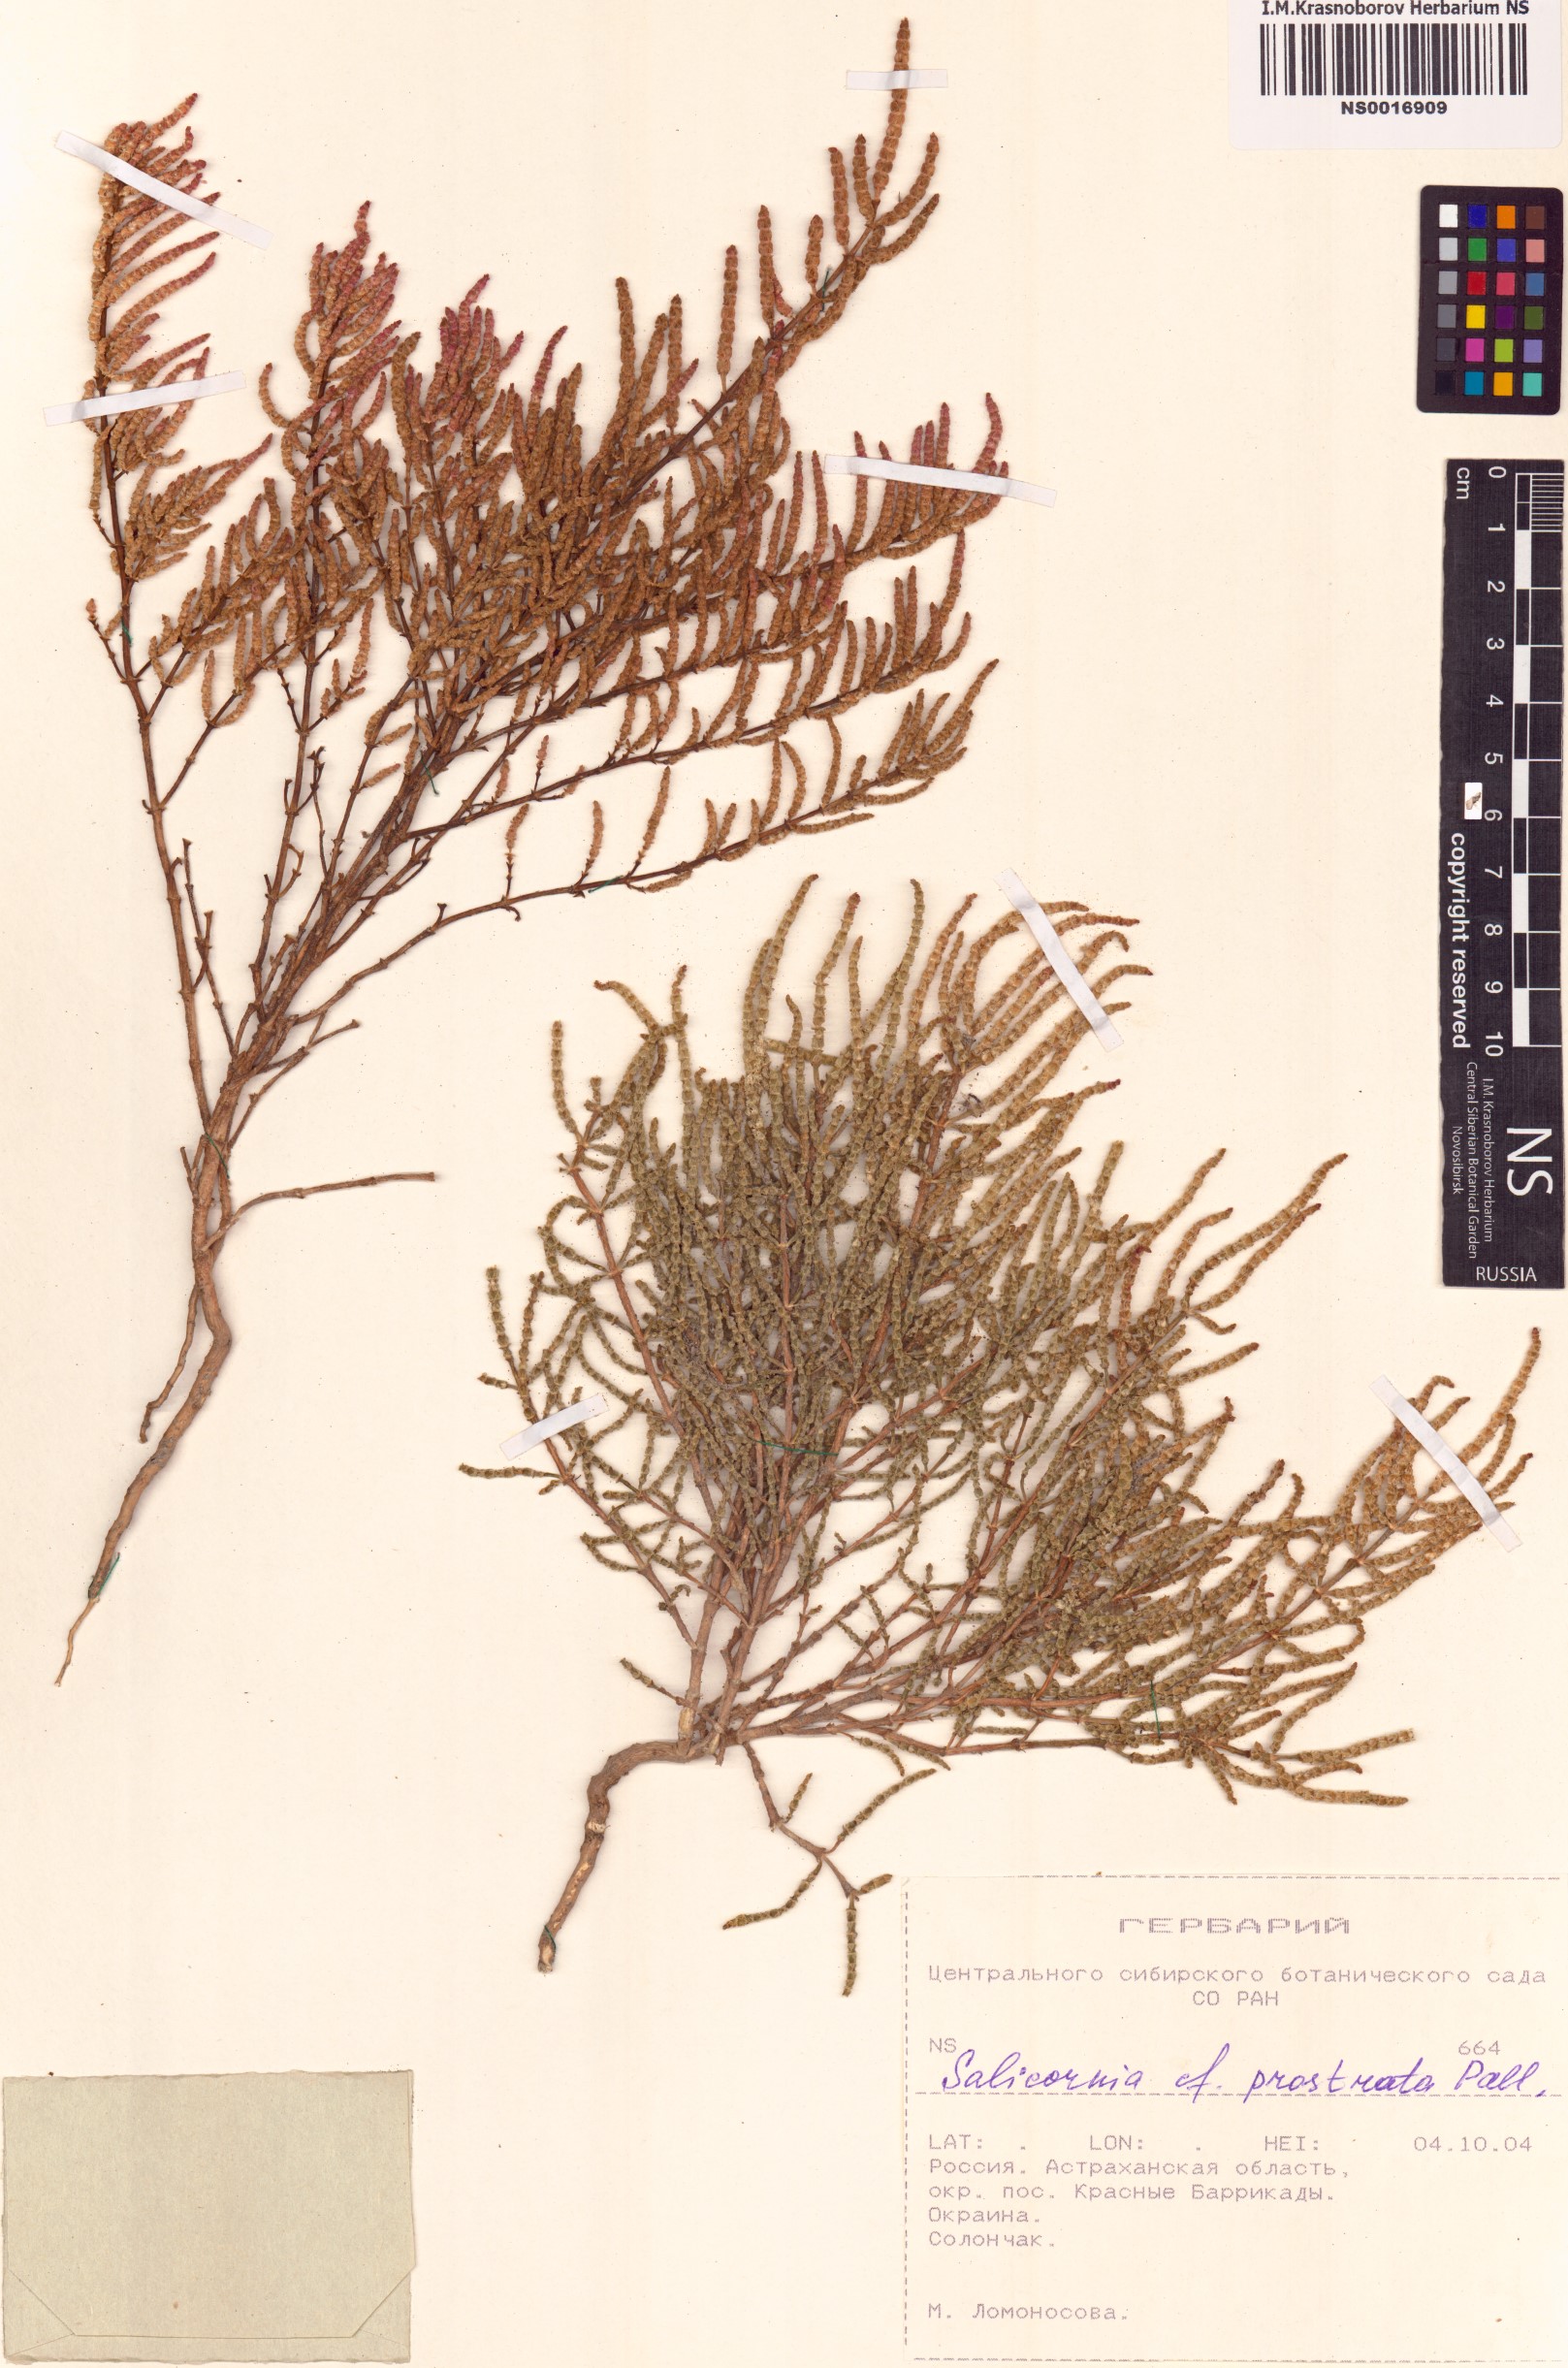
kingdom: Plantae
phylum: Tracheophyta
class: Magnoliopsida
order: Caryophyllales
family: Amaranthaceae
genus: Salicornia
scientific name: Salicornia perennans
